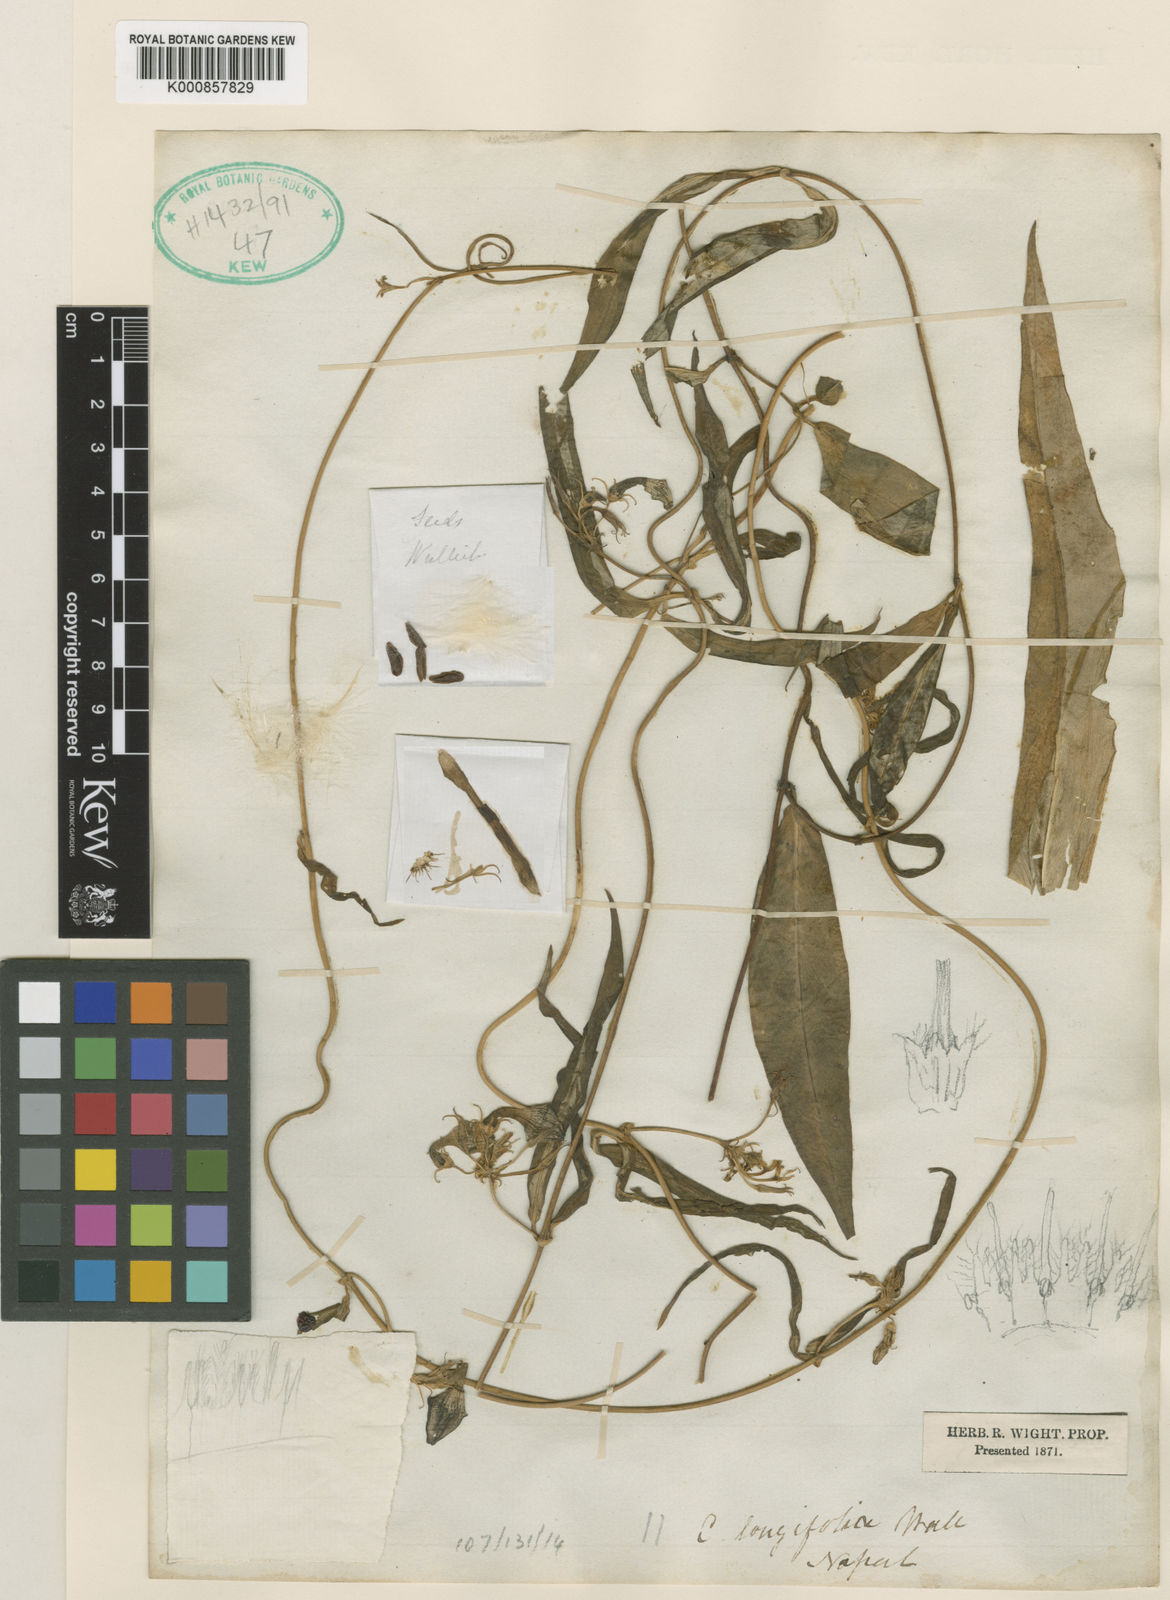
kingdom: Plantae
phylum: Tracheophyta
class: Magnoliopsida
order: Gentianales
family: Apocynaceae
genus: Ceropegia
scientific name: Ceropegia longifolia
